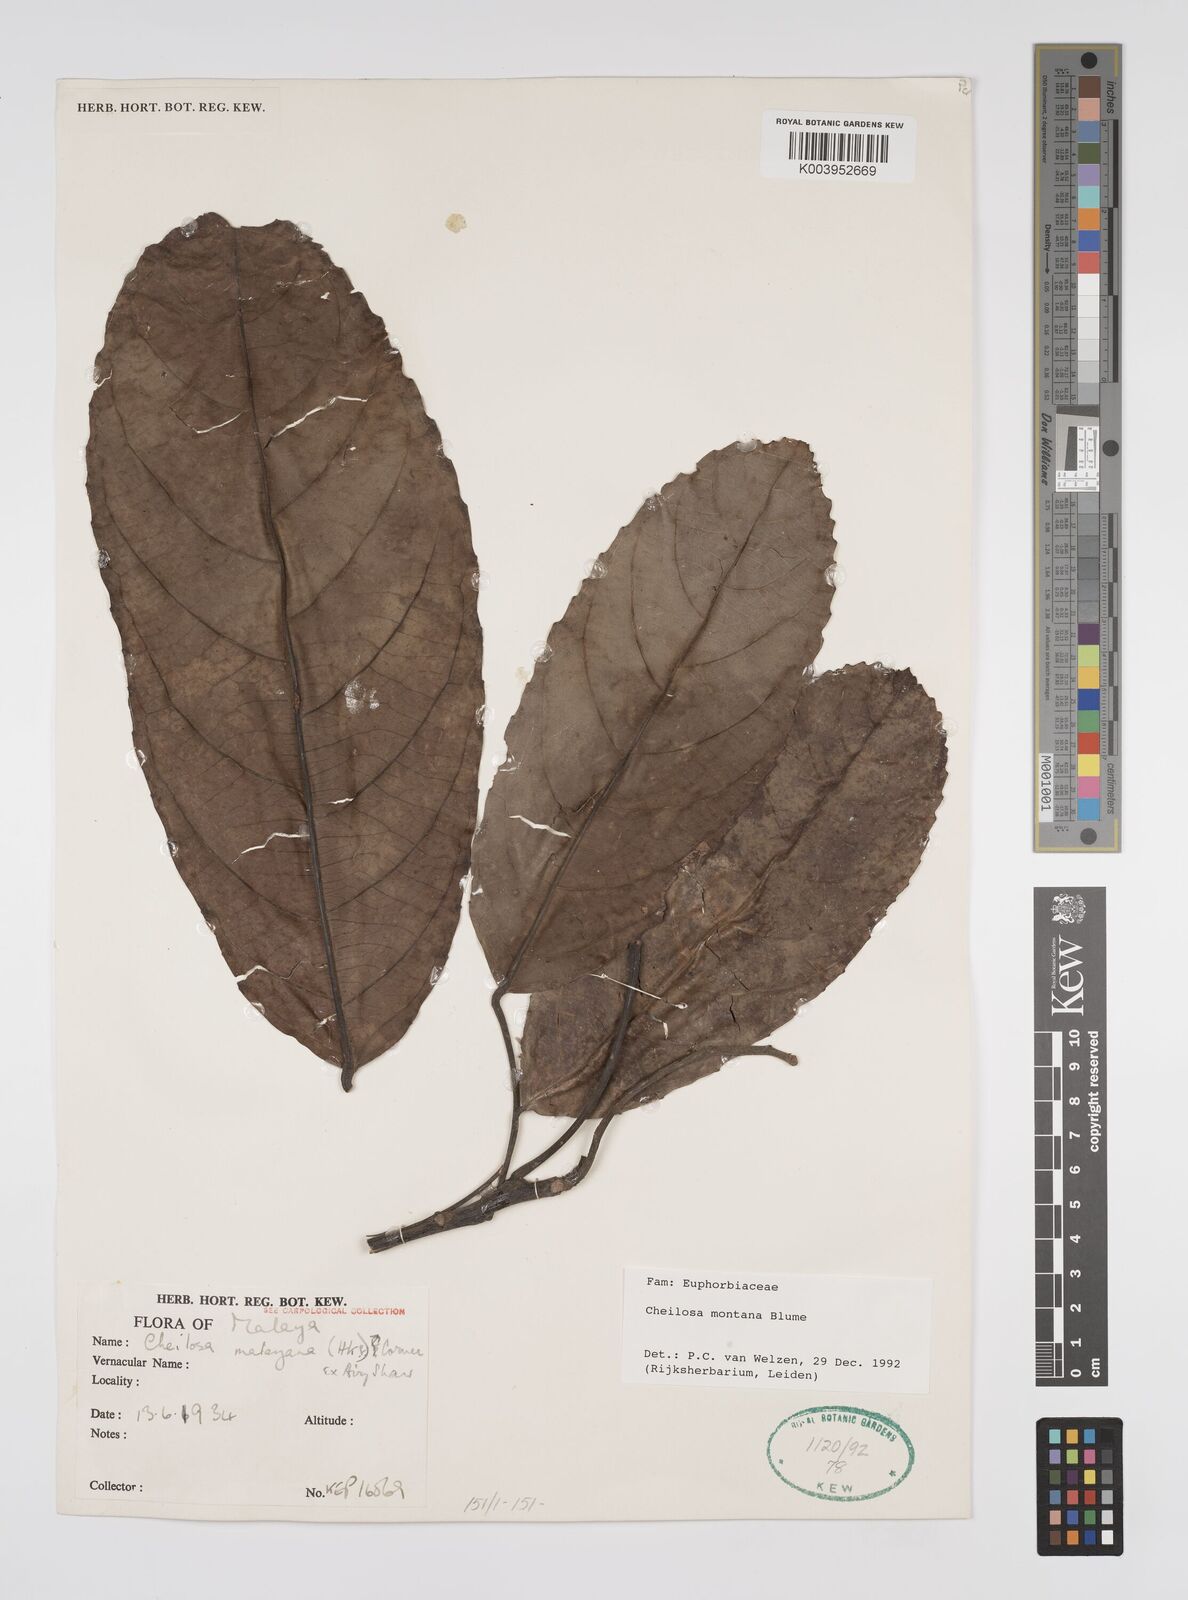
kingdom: Plantae
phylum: Tracheophyta
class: Magnoliopsida
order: Malpighiales
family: Euphorbiaceae
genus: Cheilosa
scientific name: Cheilosa montana
